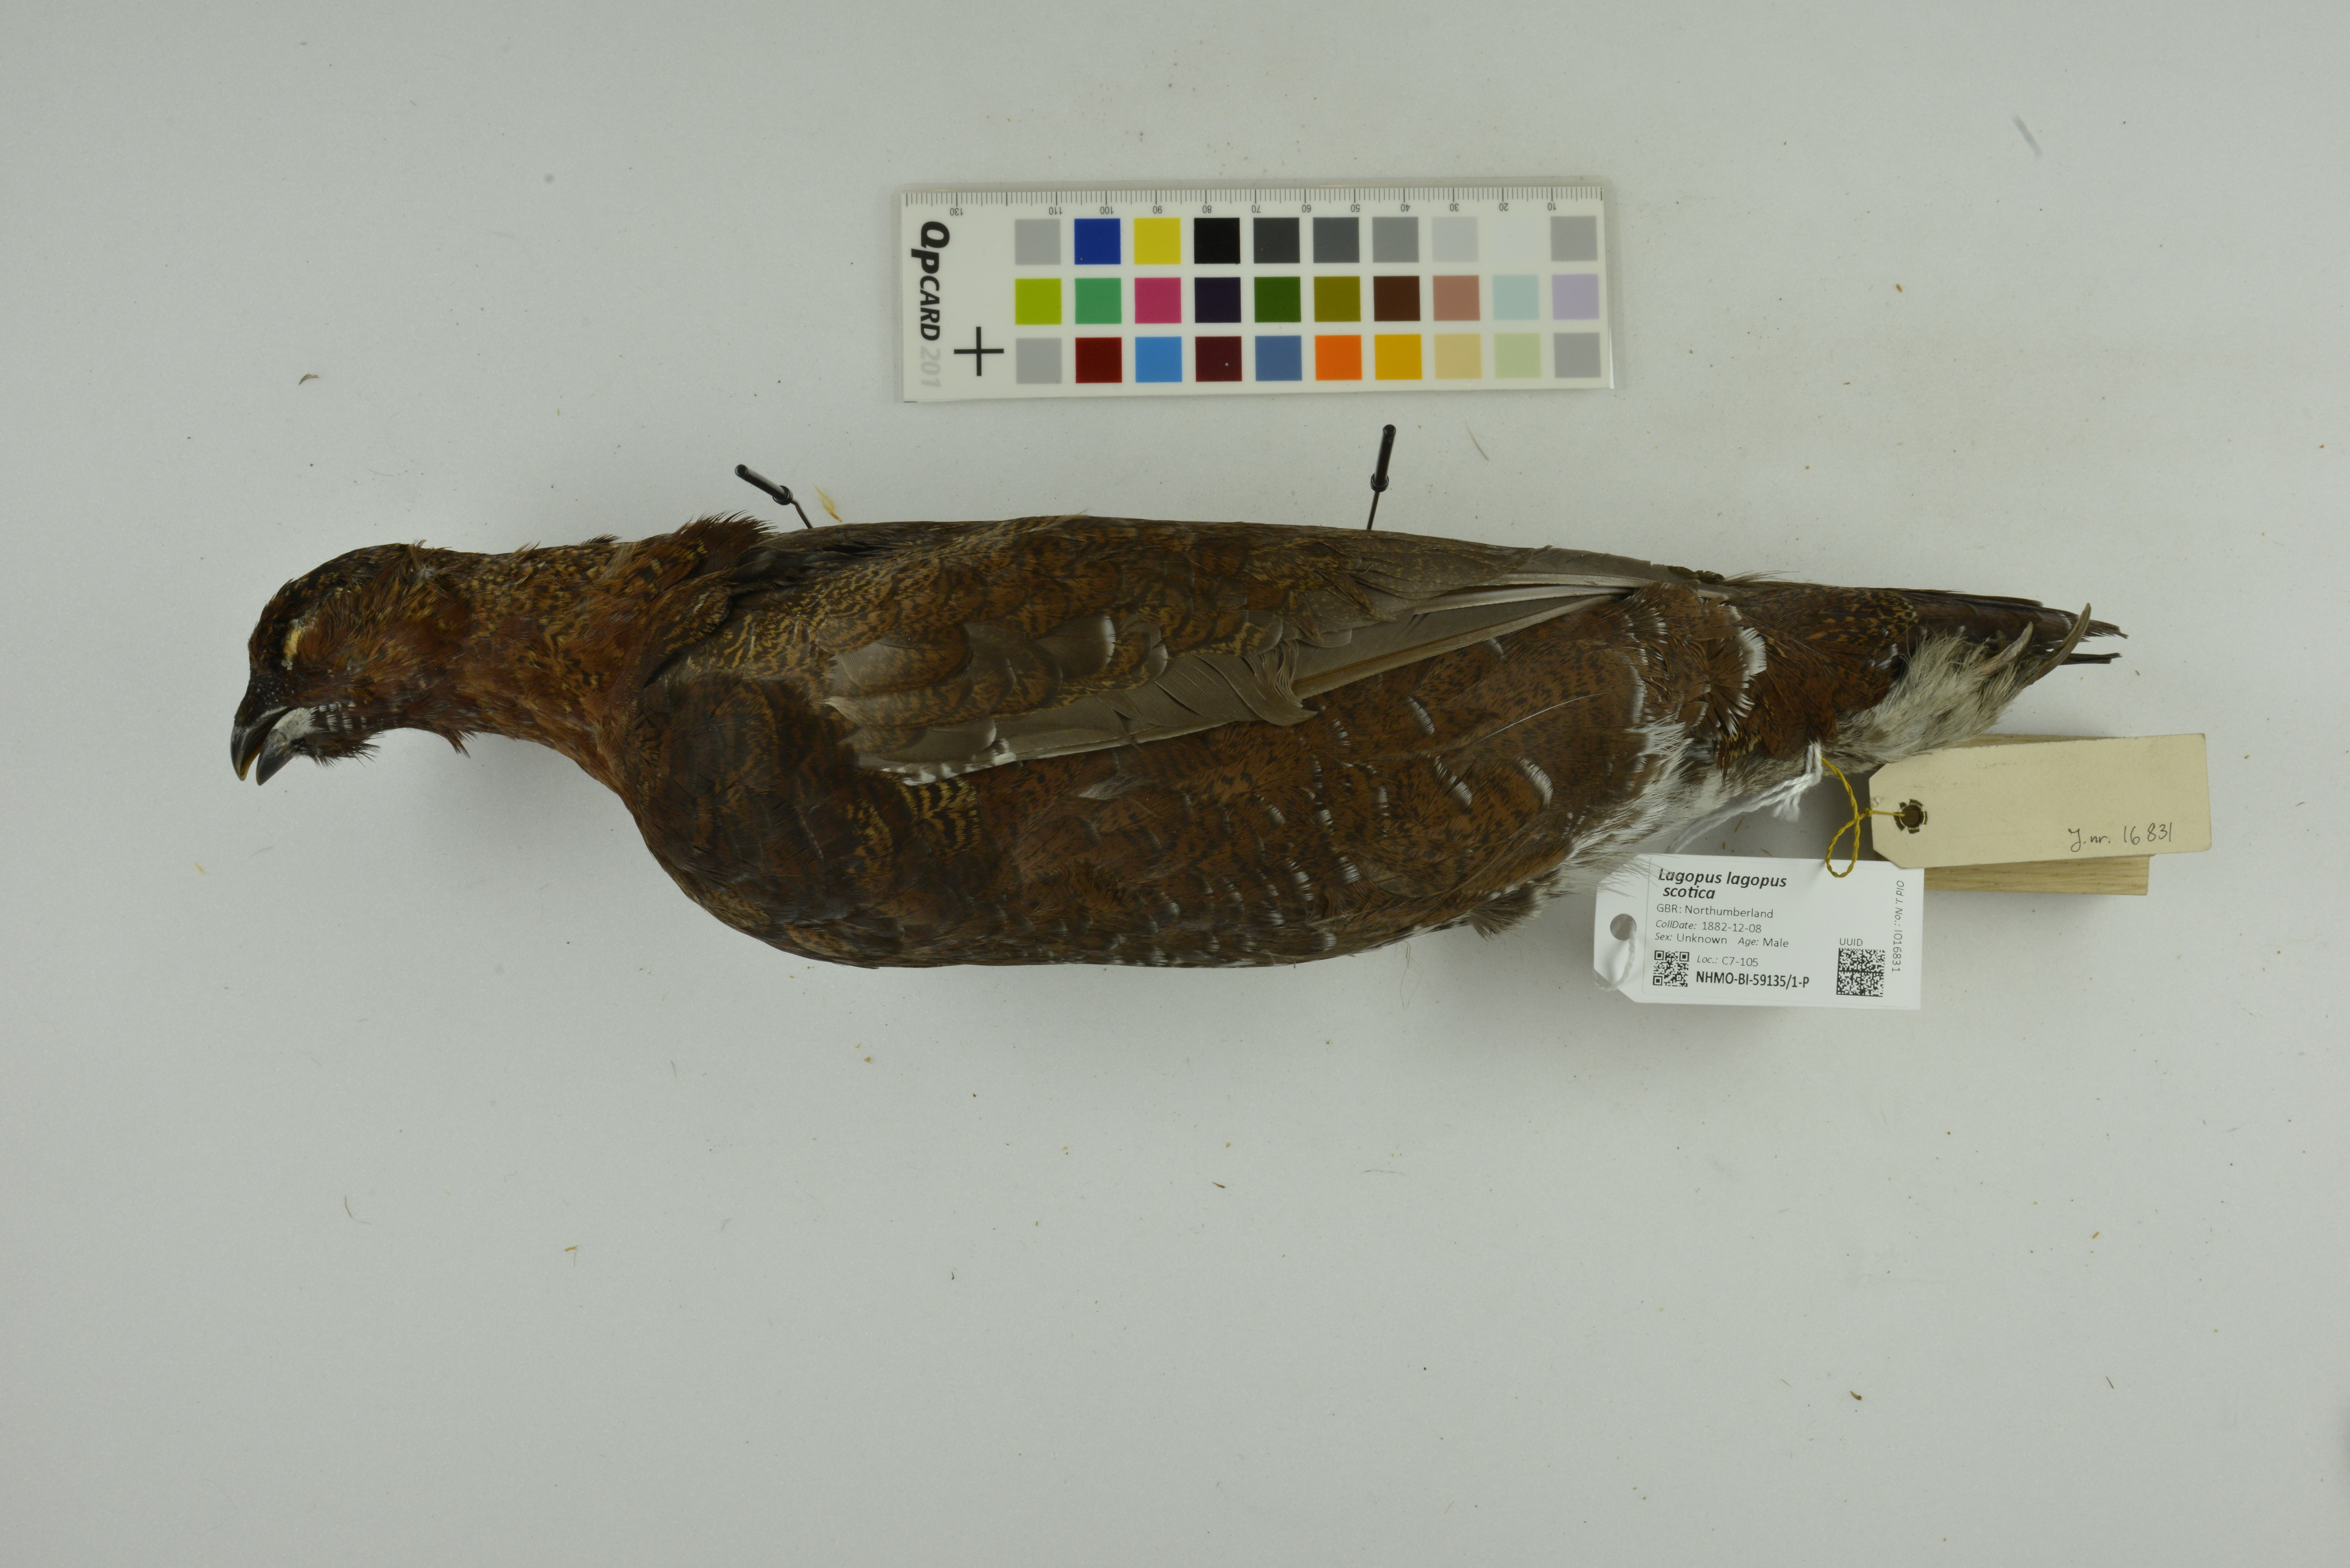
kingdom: Animalia
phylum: Chordata
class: Aves
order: Galliformes
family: Phasianidae
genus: Lagopus
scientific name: Lagopus lagopus
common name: Willow ptarmigan
